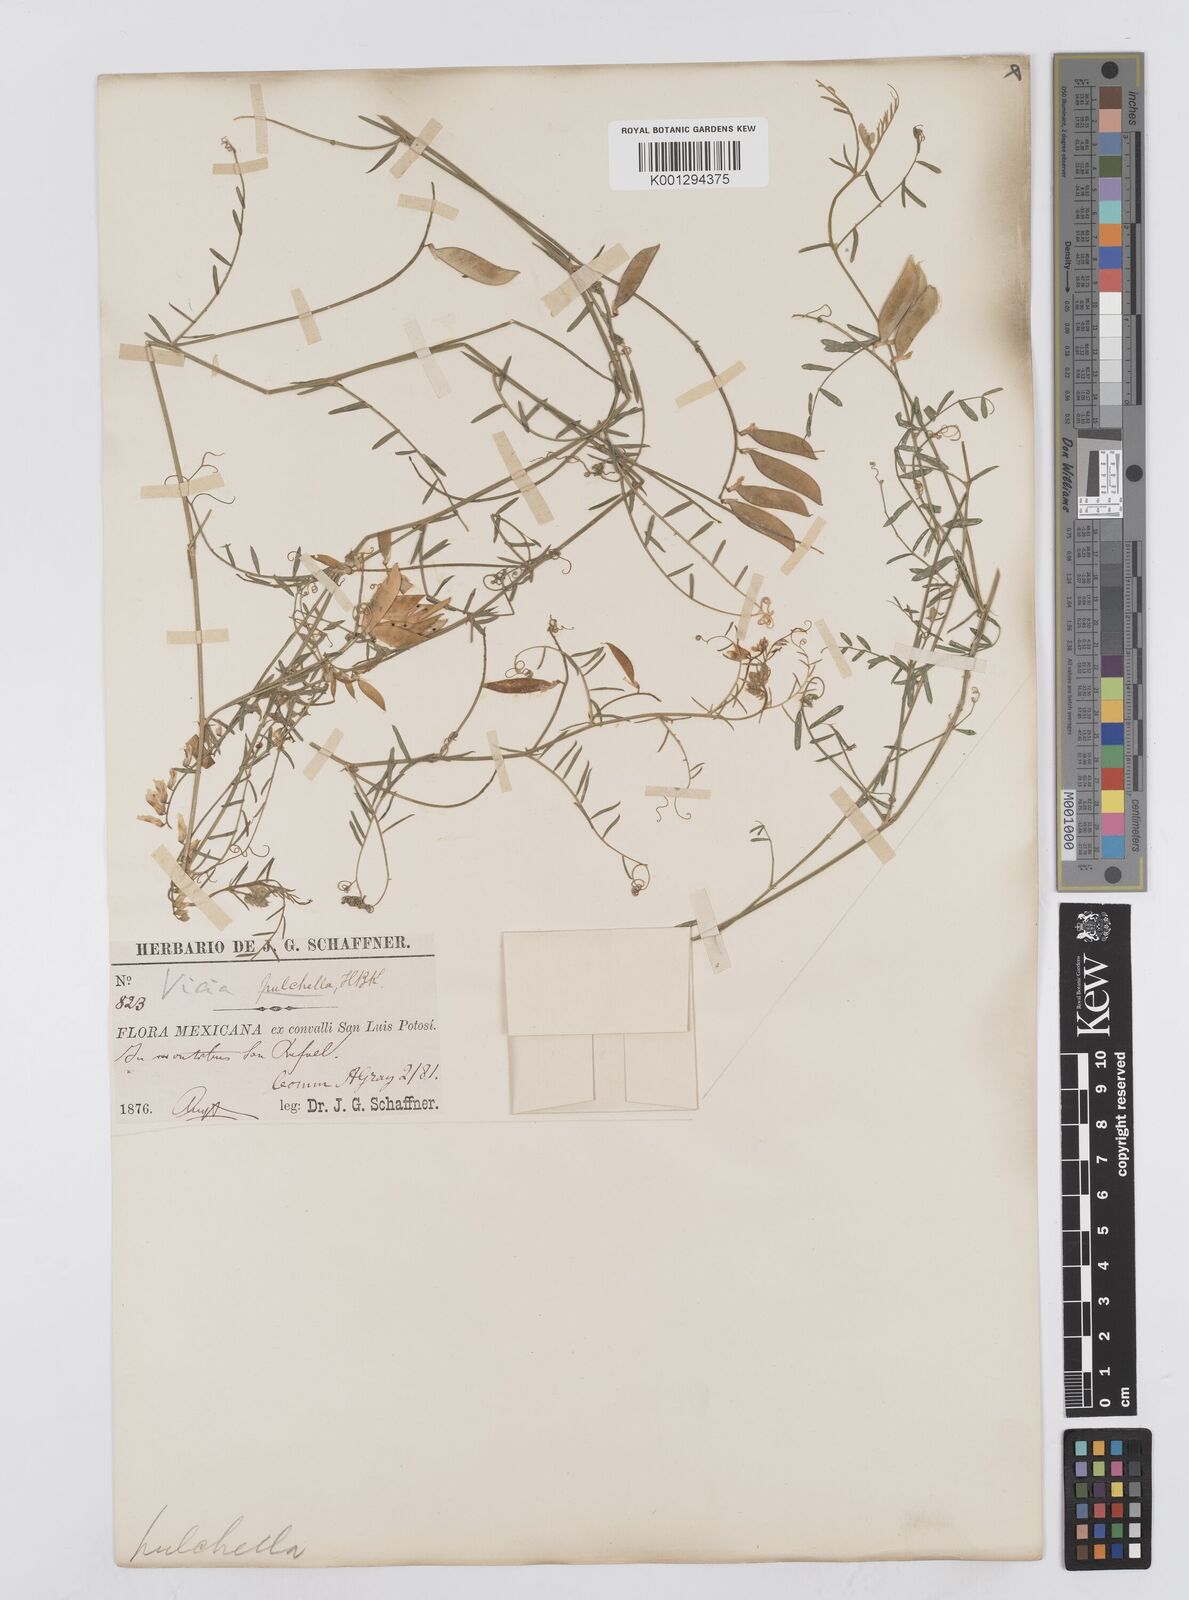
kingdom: Plantae
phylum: Tracheophyta
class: Magnoliopsida
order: Fabales
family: Fabaceae
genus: Vicia
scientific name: Vicia pulchella
